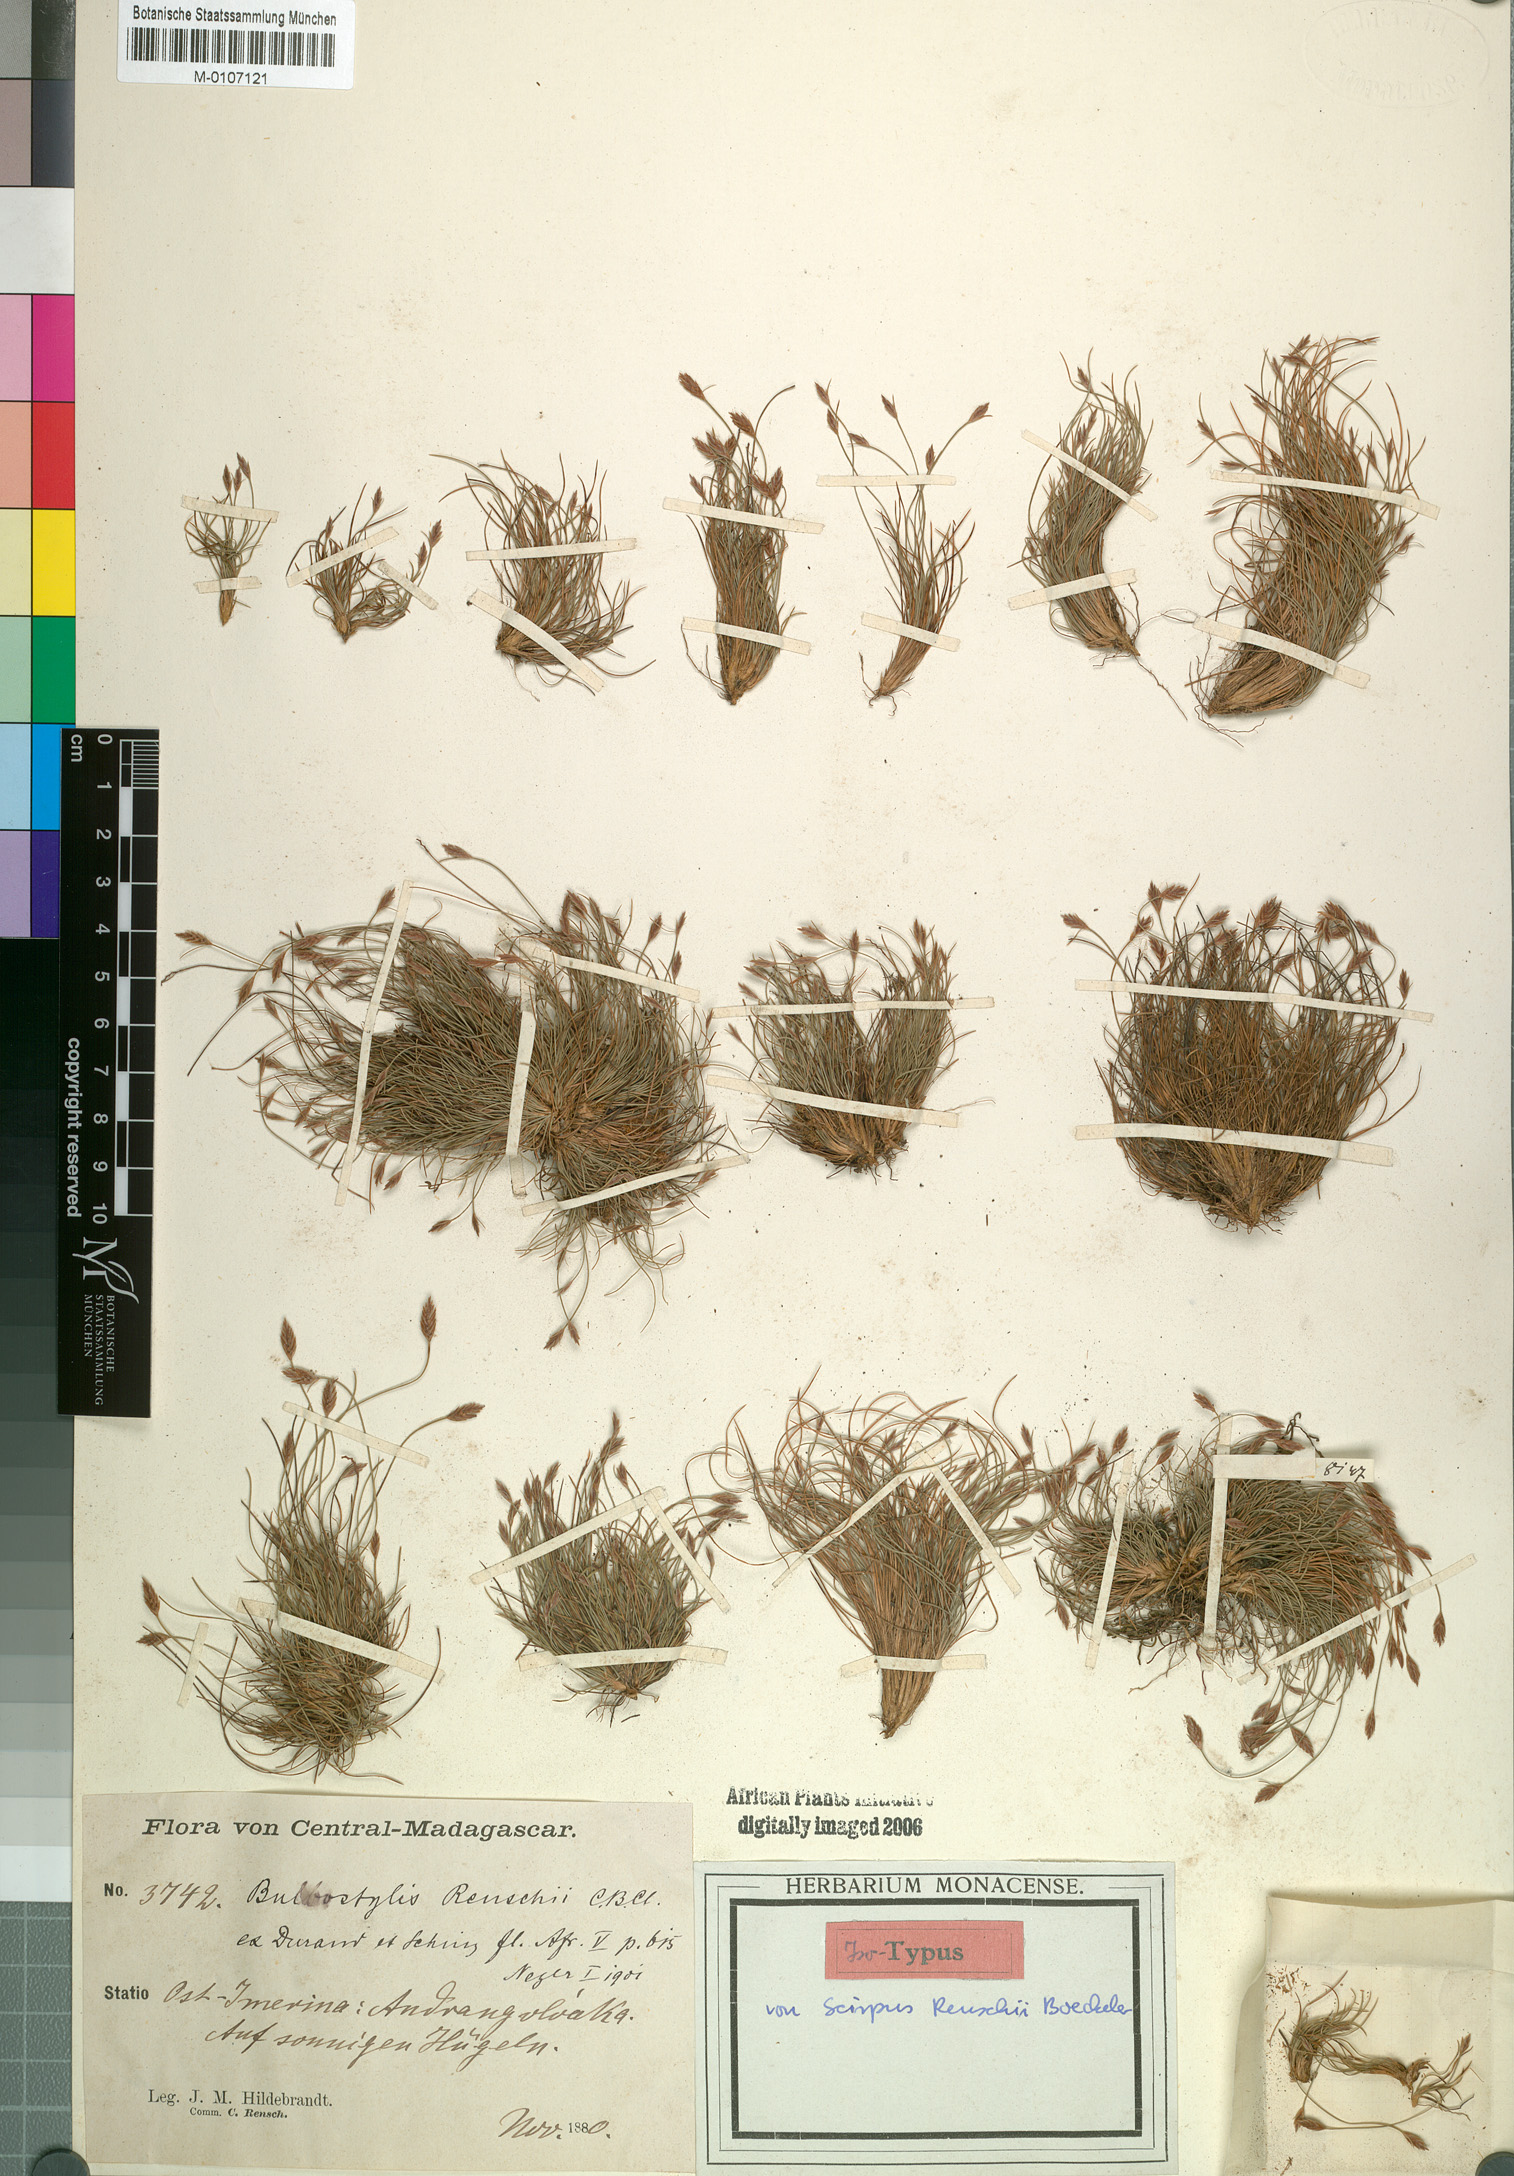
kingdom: Plantae
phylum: Tracheophyta
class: Liliopsida
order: Poales
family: Cyperaceae
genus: Bulbostylis
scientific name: Bulbostylis renschii
